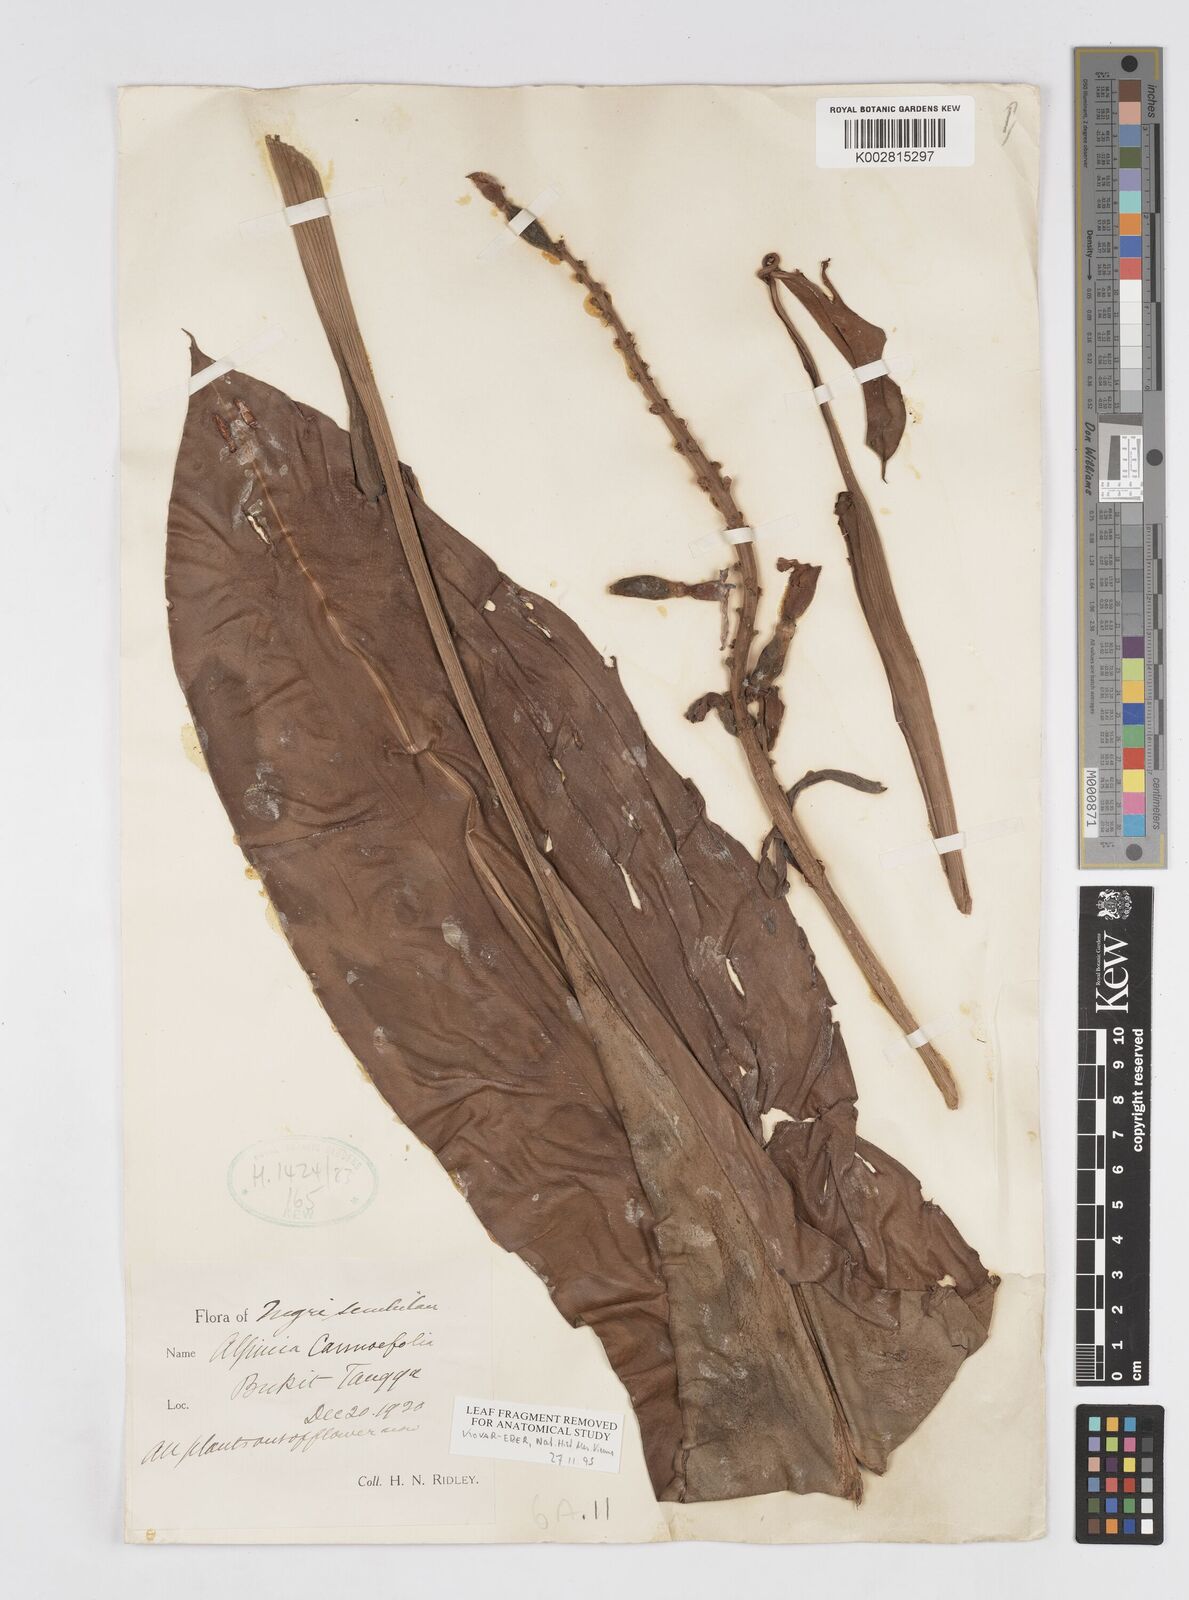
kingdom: Plantae
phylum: Tracheophyta
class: Liliopsida
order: Zingiberales
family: Zingiberaceae
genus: Alpinia
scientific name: Alpinia vitellina
